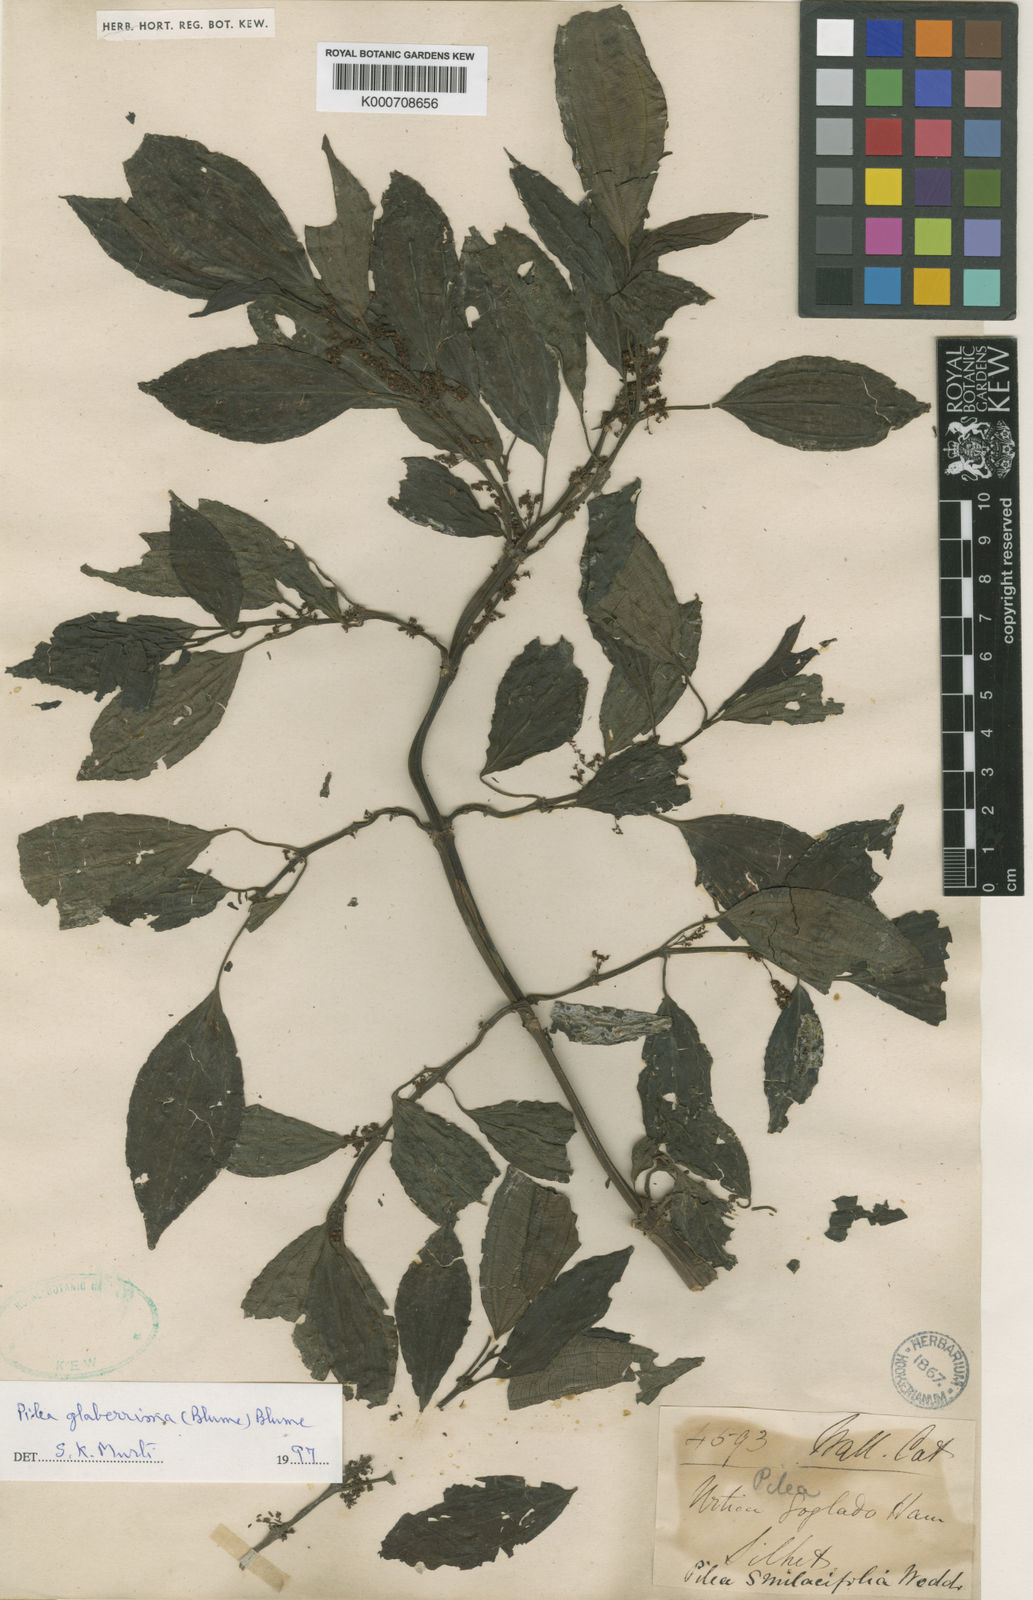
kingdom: Plantae
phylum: Tracheophyta
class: Magnoliopsida
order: Rosales
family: Urticaceae
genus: Pilea
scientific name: Pilea glaberrima
